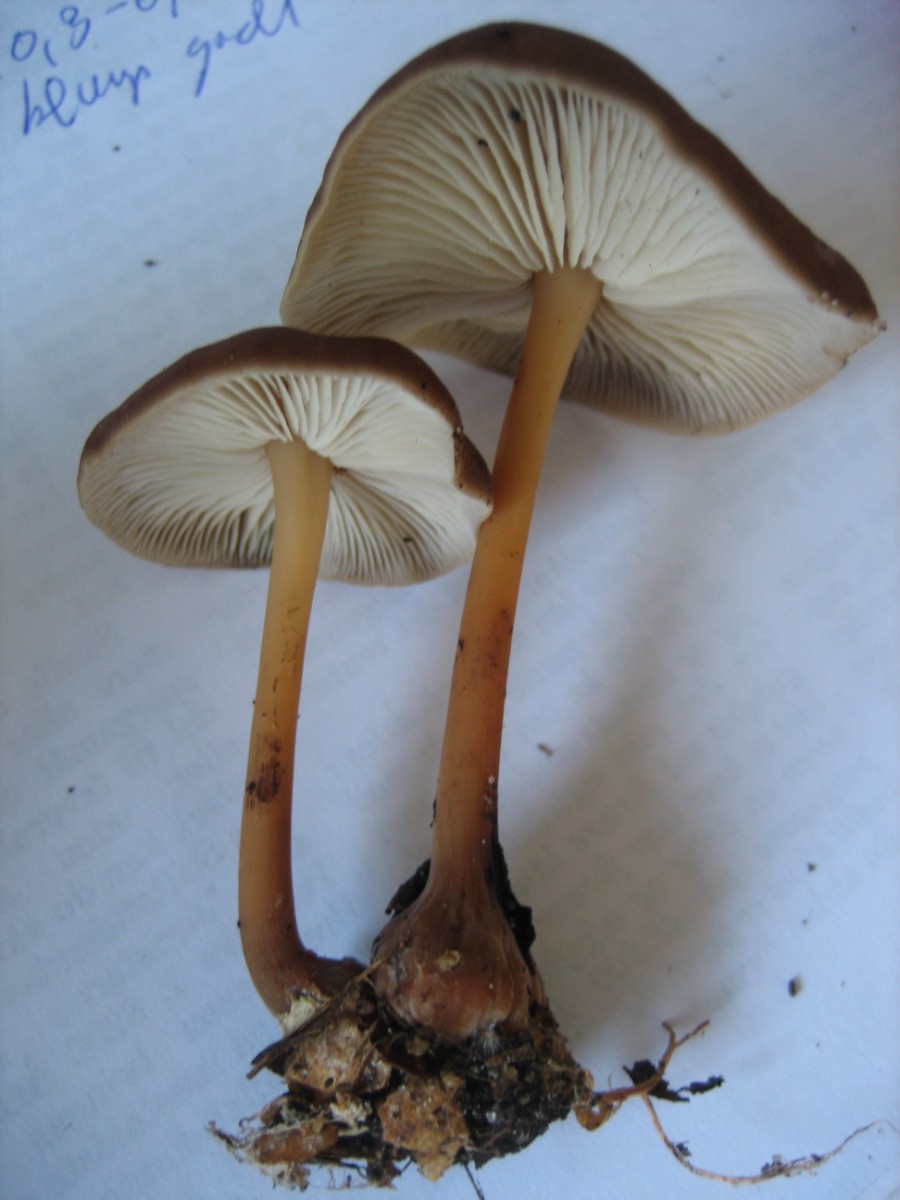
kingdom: Fungi
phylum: Basidiomycota
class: Agaricomycetes
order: Agaricales
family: Omphalotaceae
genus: Gymnopus
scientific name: Gymnopus ocior
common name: mørk fladhat
